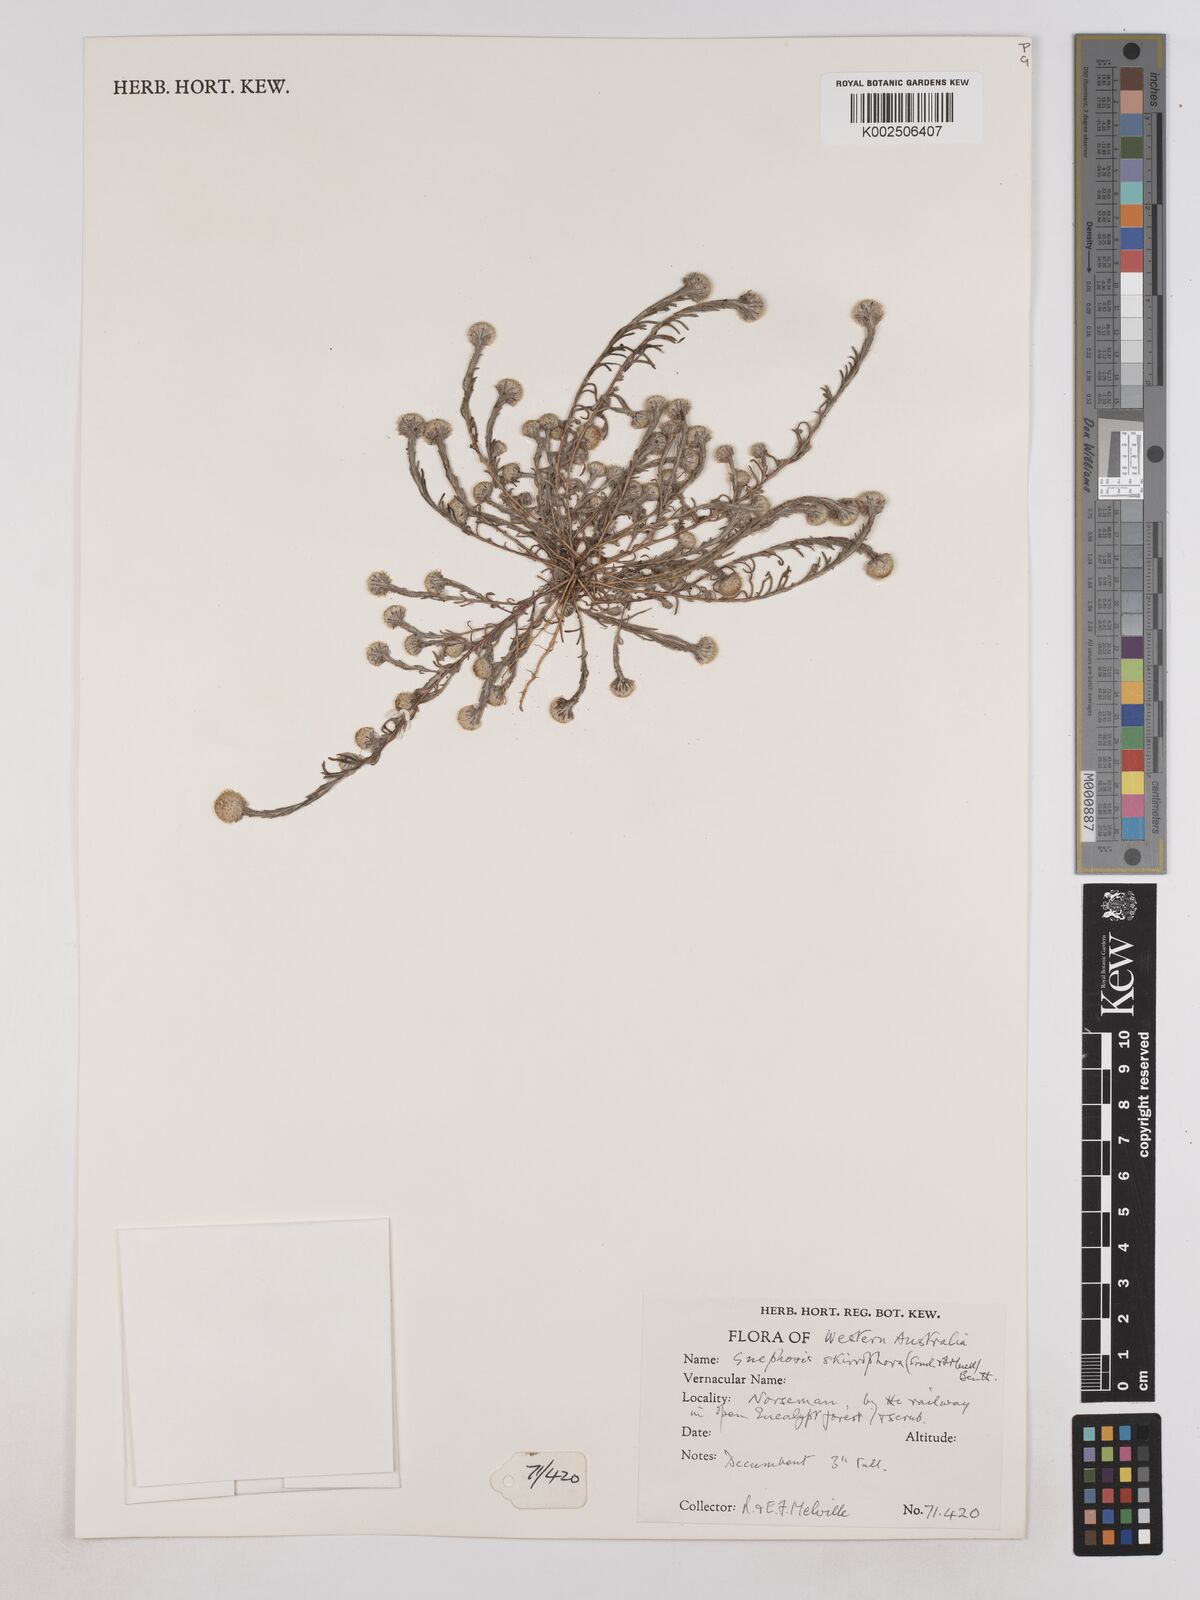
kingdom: Plantae
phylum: Tracheophyta
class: Magnoliopsida
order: Asterales
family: Asteraceae
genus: Trichanthodium
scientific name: Trichanthodium skirrophorum
